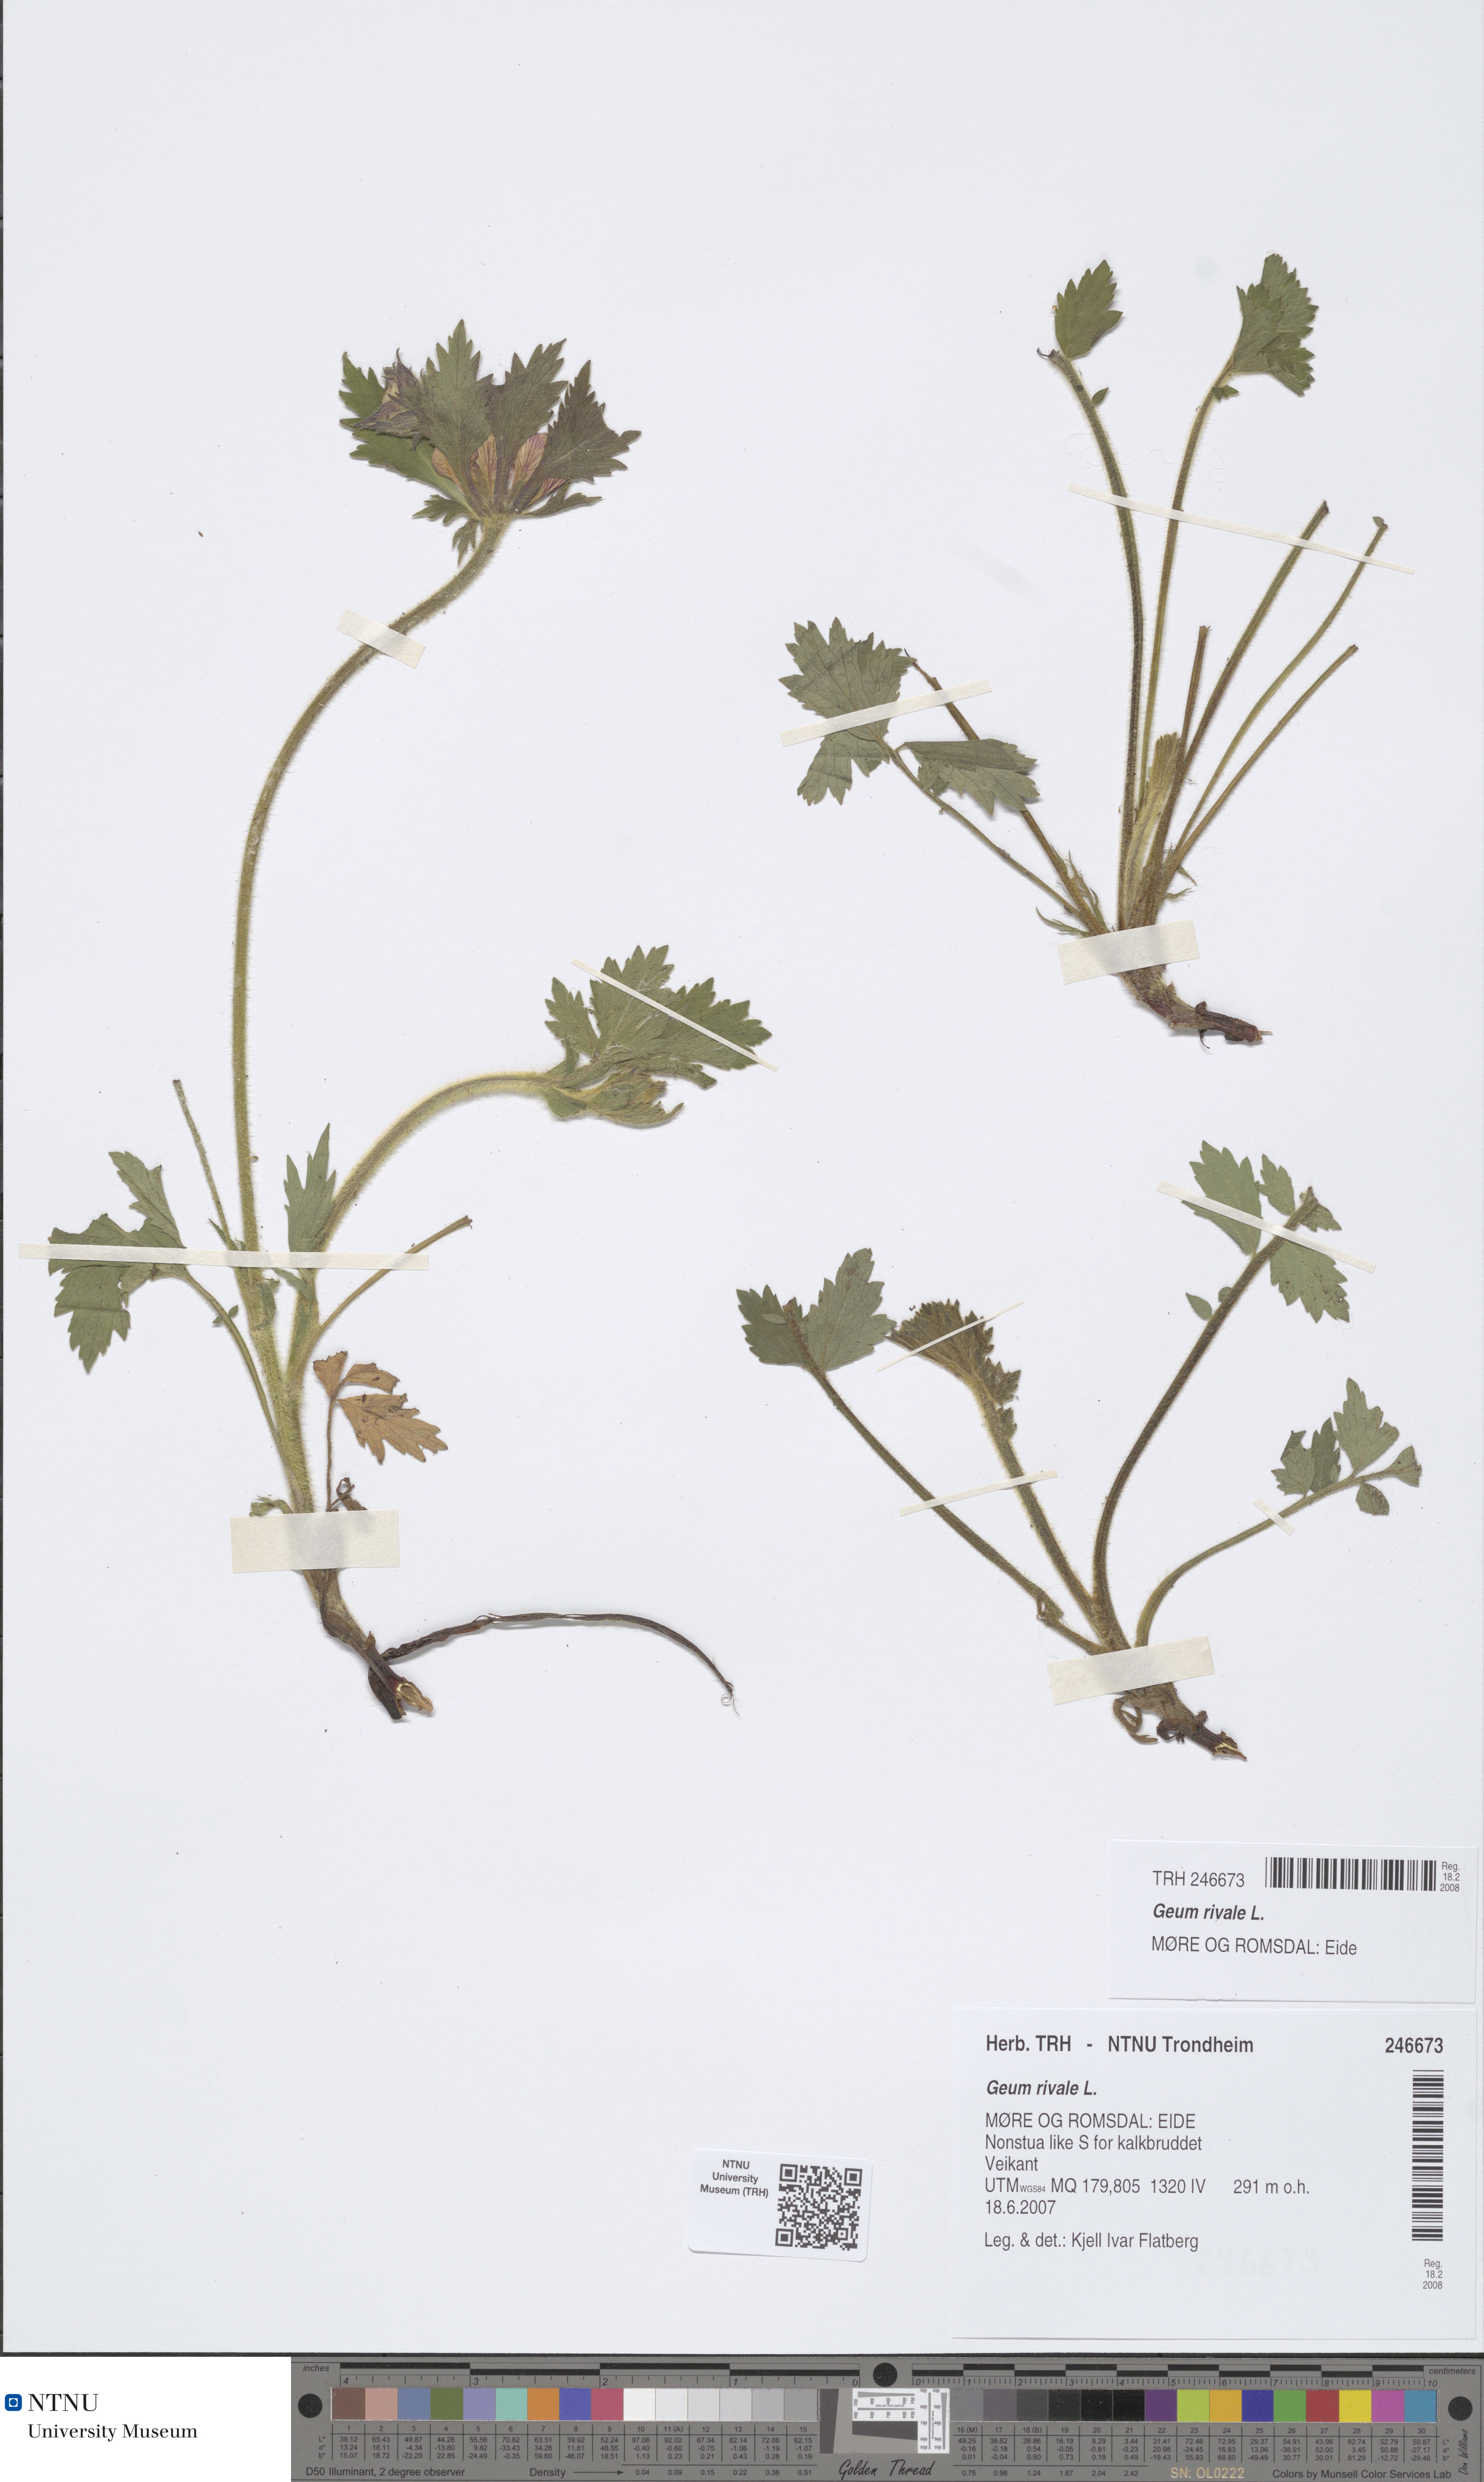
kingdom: Plantae
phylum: Tracheophyta
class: Magnoliopsida
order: Rosales
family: Rosaceae
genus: Geum
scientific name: Geum rivale
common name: Water avens
